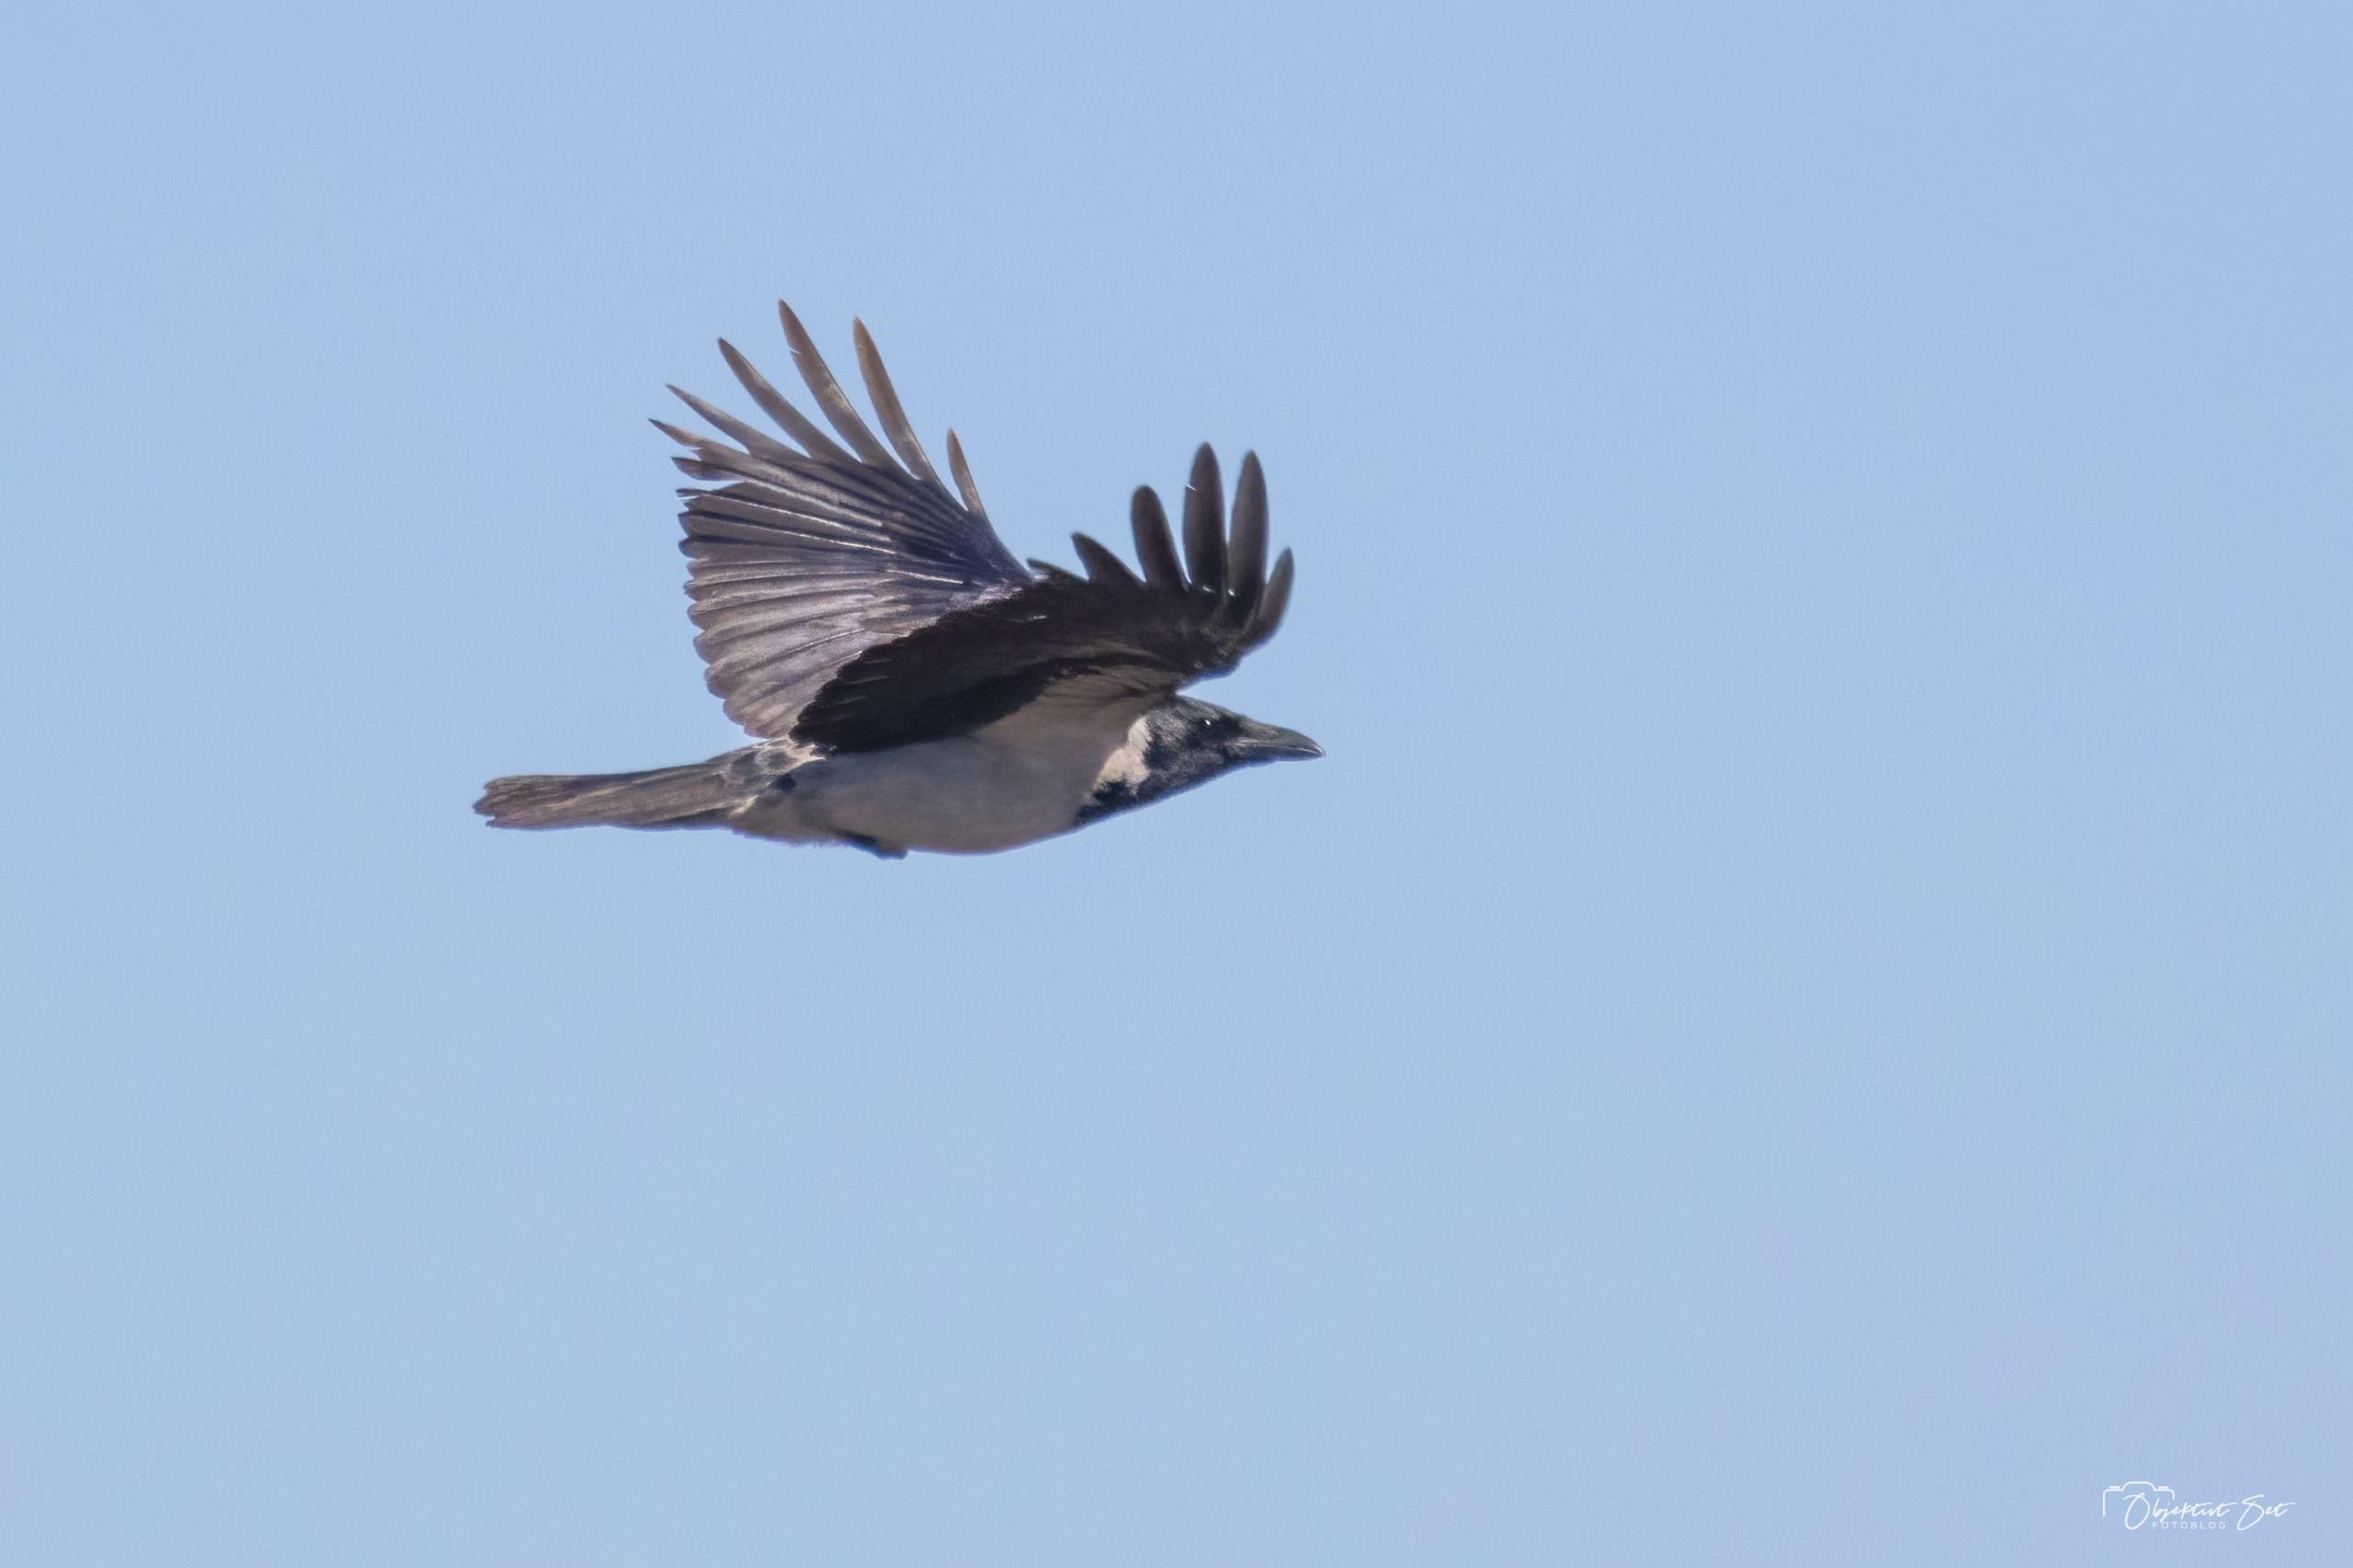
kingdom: Animalia
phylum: Chordata
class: Aves
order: Passeriformes
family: Corvidae
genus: Corvus
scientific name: Corvus cornix
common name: Gråkrage
